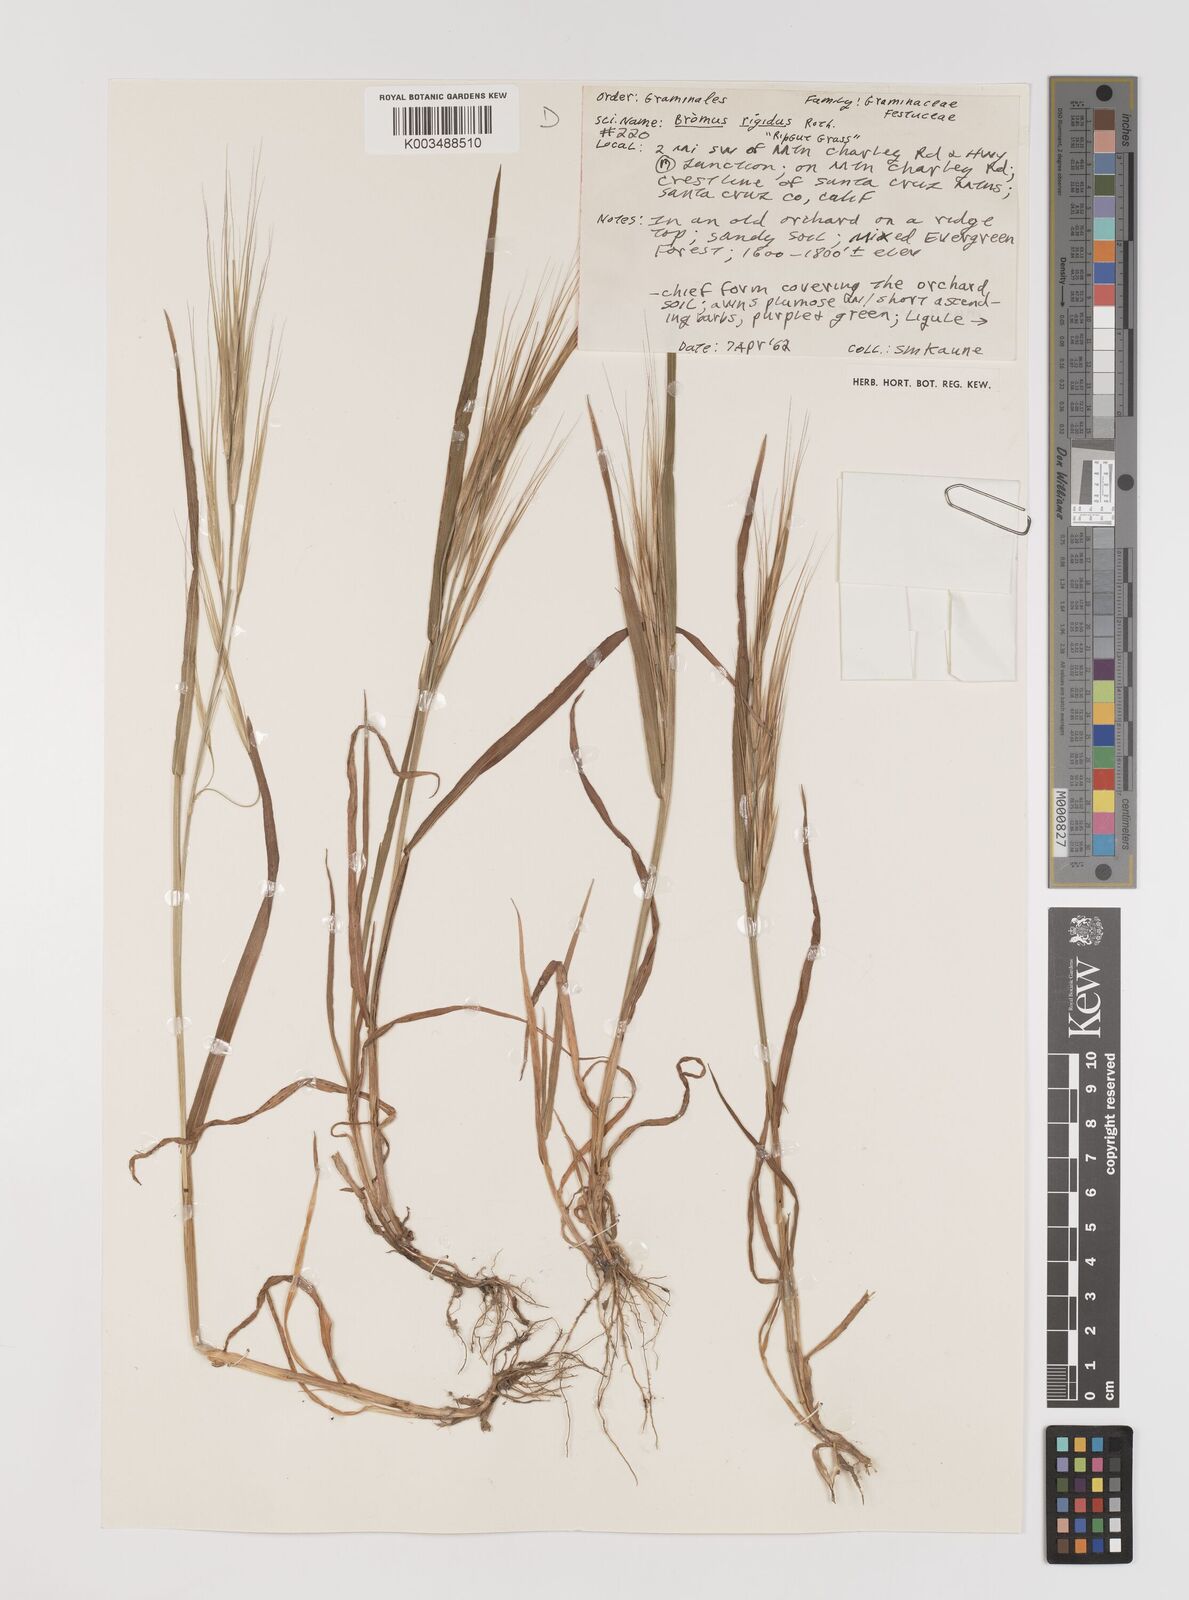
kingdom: Plantae
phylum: Tracheophyta
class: Liliopsida
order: Poales
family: Poaceae
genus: Bromus
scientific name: Bromus diandrus
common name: Ripgut brome
